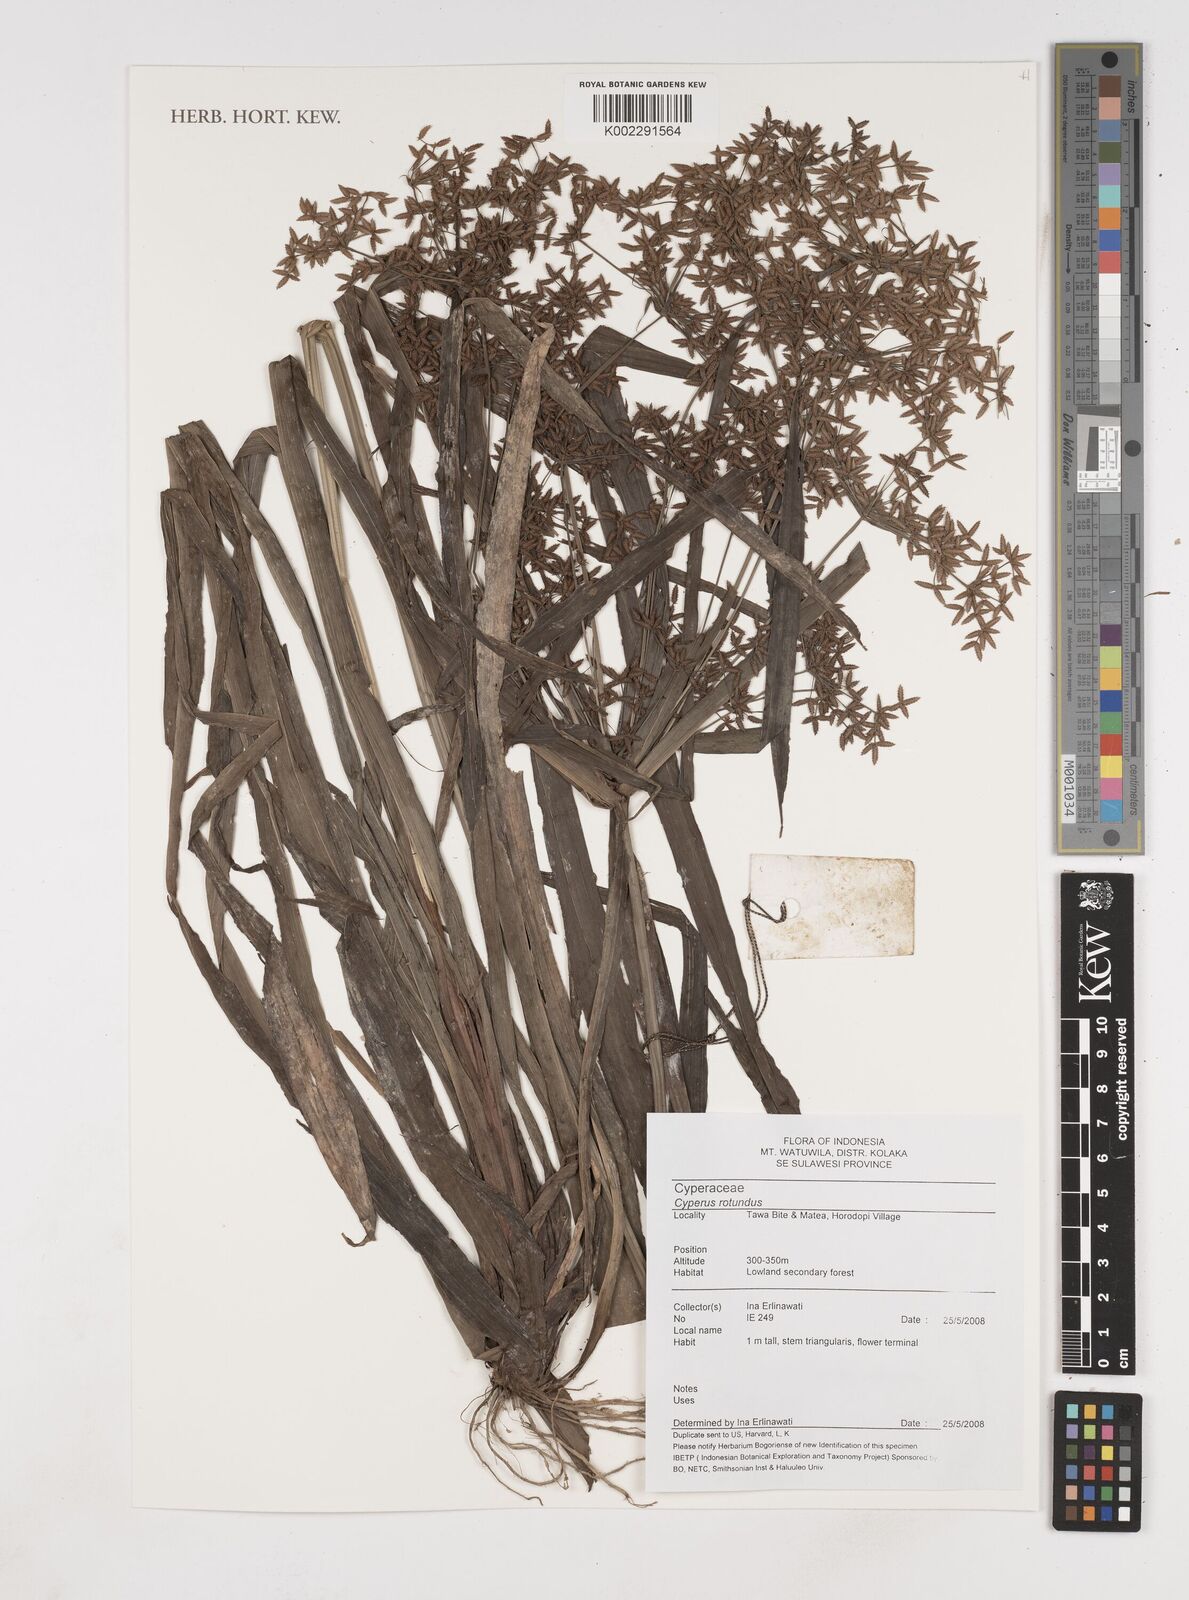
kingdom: Plantae
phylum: Tracheophyta
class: Liliopsida
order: Poales
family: Cyperaceae
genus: Cyperus
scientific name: Cyperus rotundus
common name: Nutgrass
